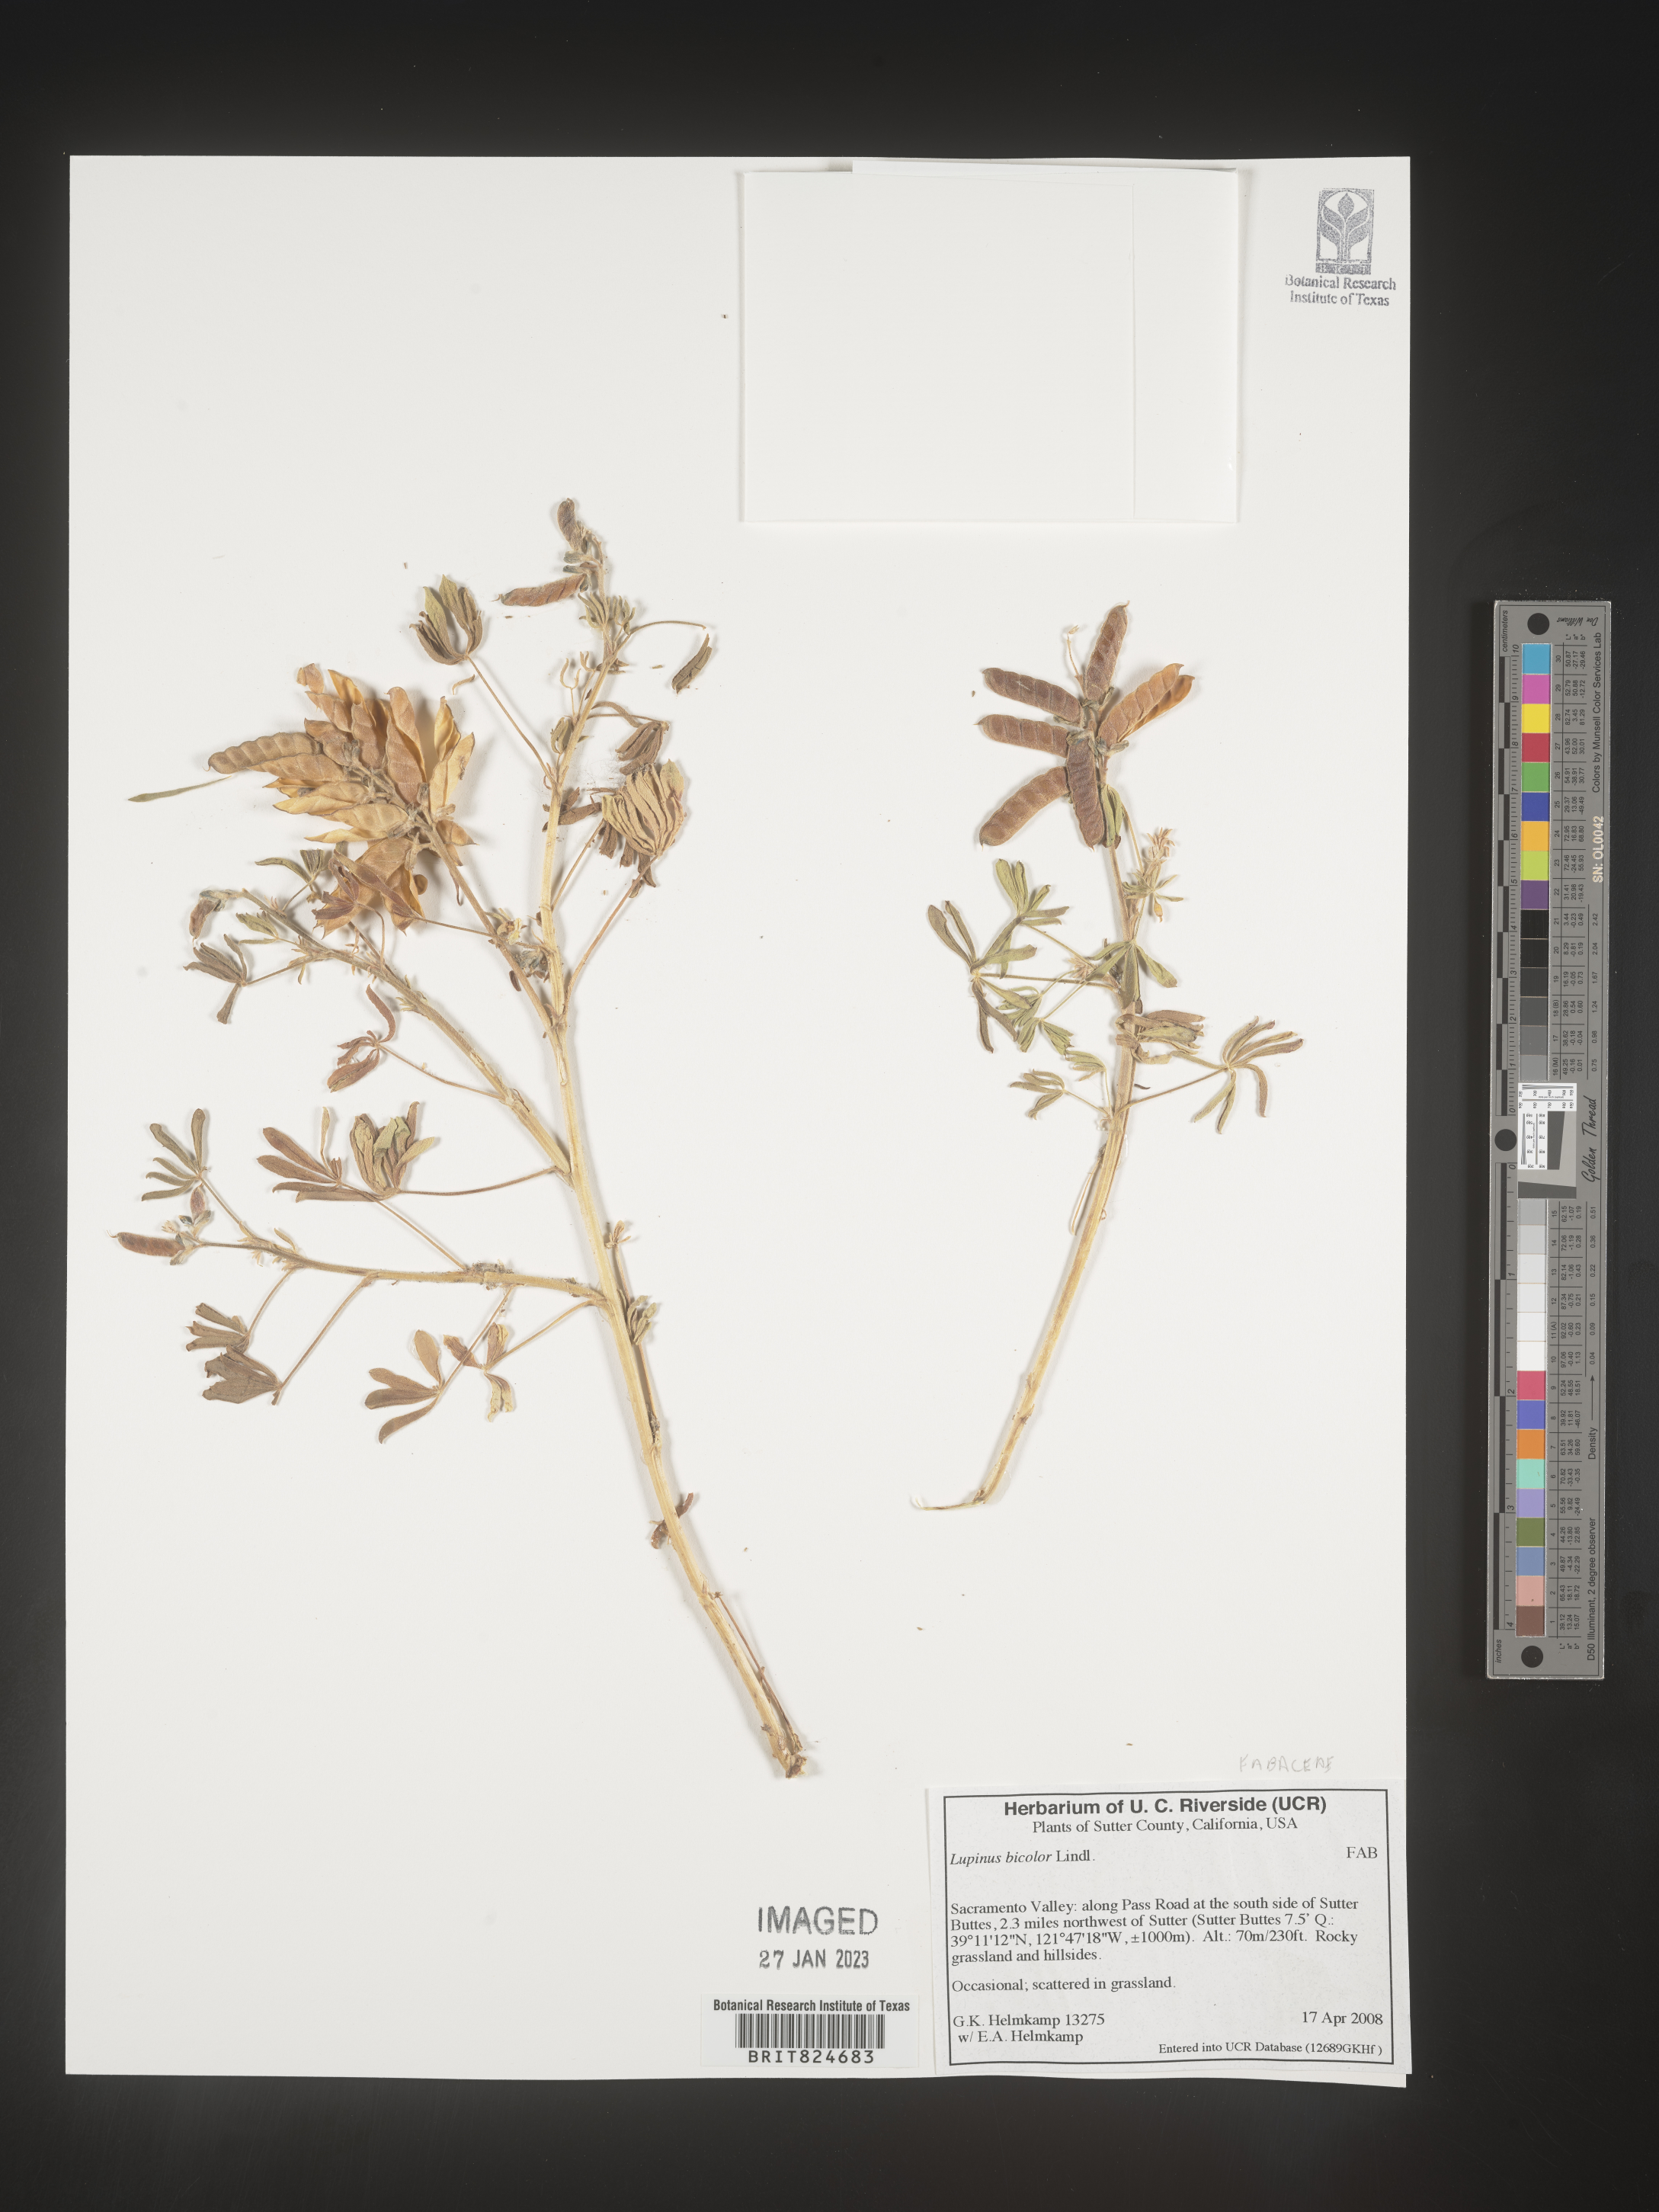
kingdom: Plantae
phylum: Tracheophyta
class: Magnoliopsida
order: Fabales
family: Fabaceae
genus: Lupinus
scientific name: Lupinus bicolor
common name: Miniature lupine
